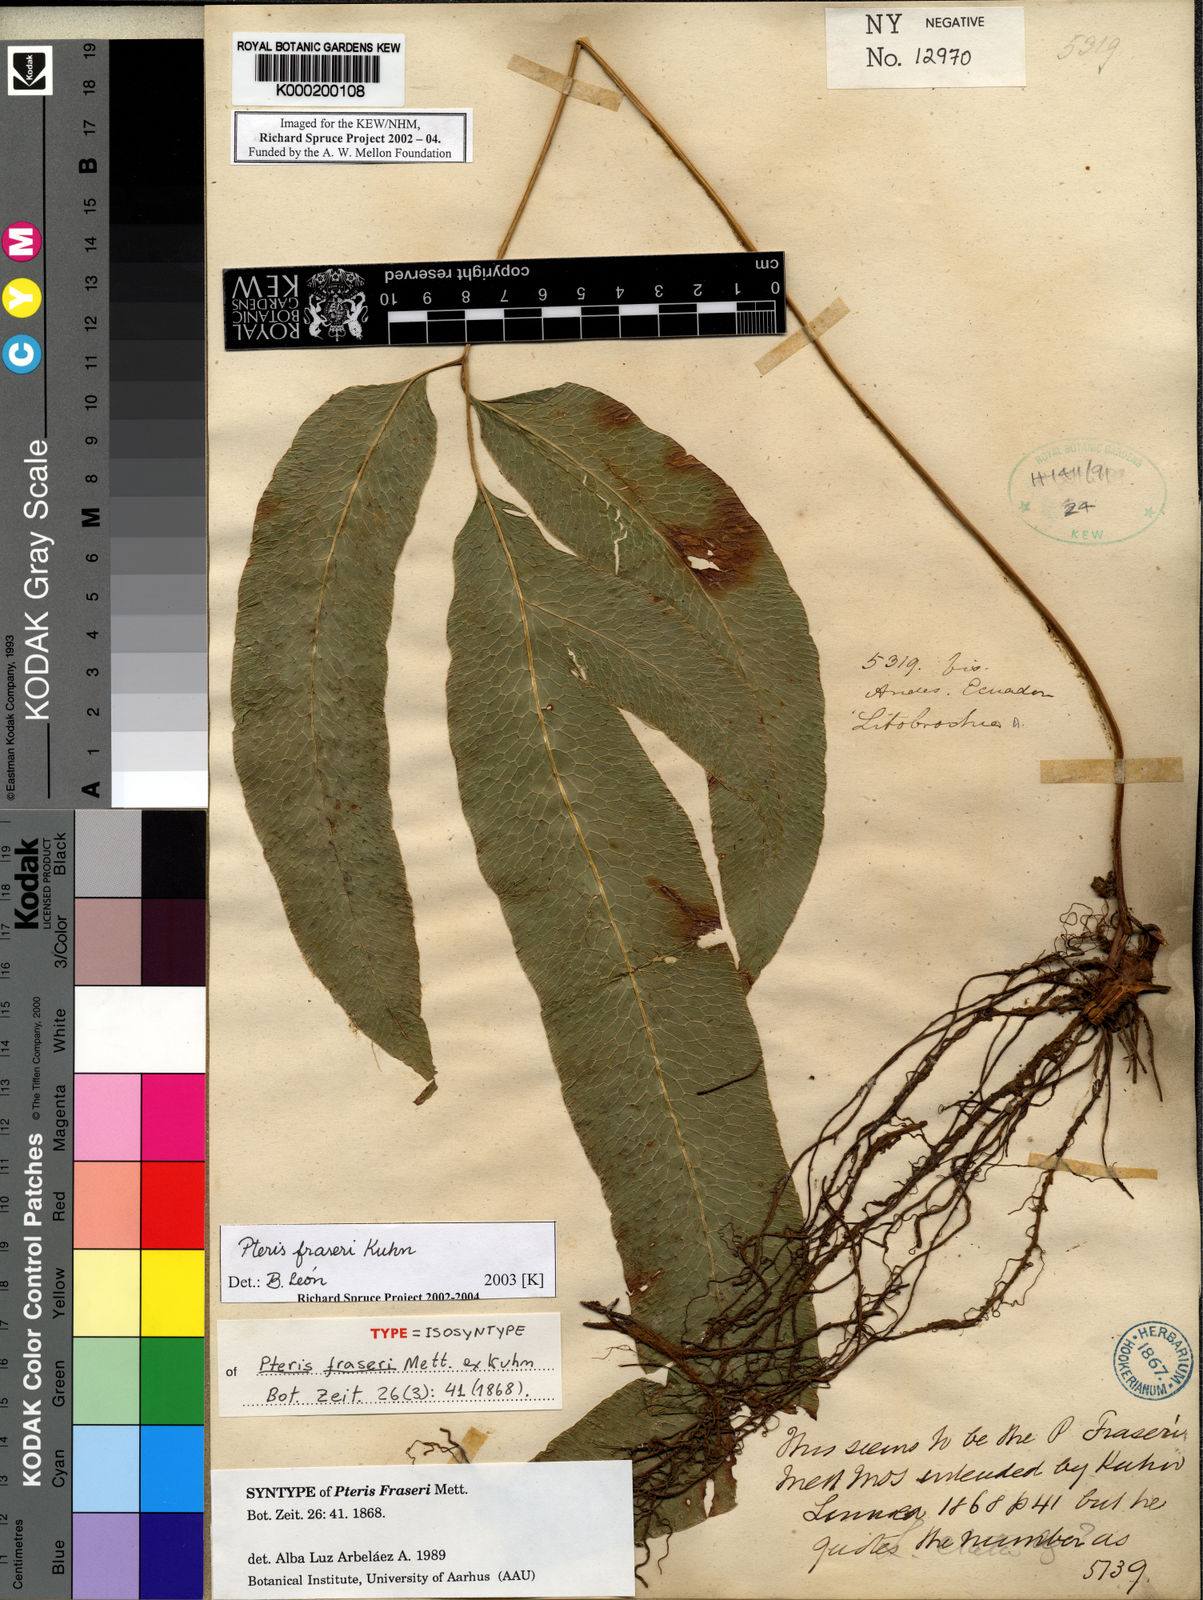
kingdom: Plantae
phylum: Tracheophyta
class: Polypodiopsida
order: Polypodiales
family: Pteridaceae
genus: Pteris
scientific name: Pteris
